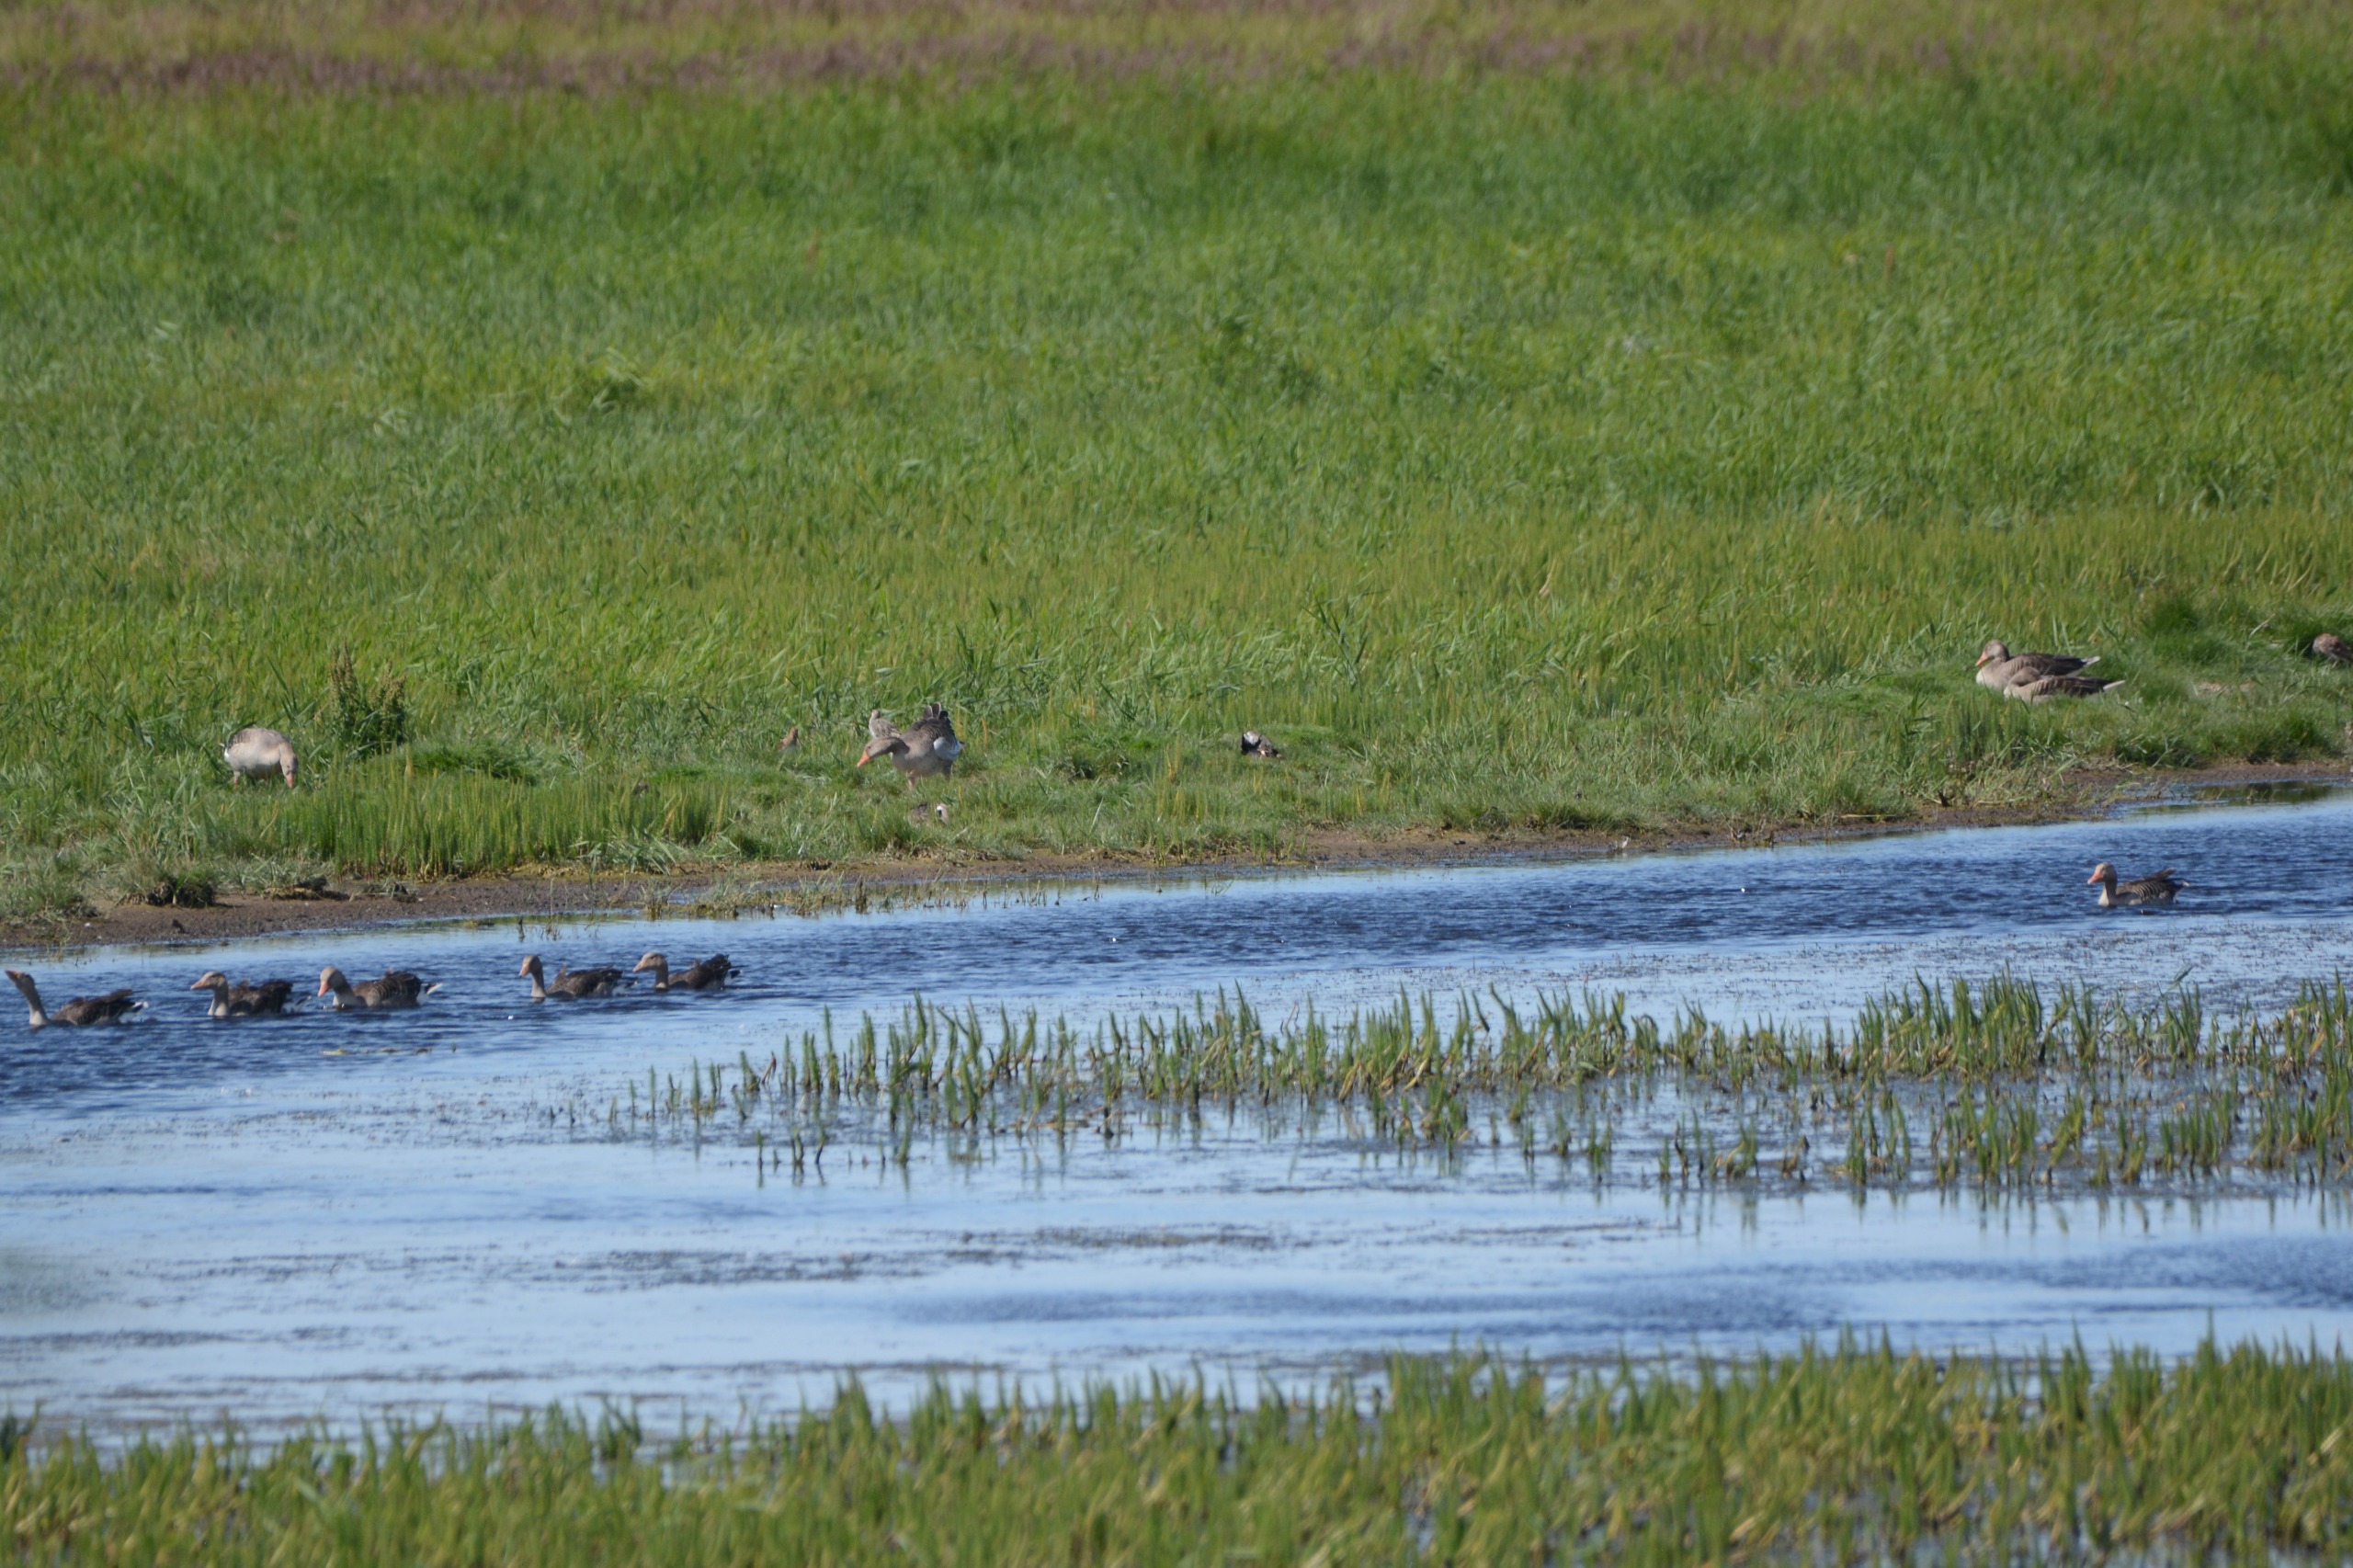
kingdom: Animalia
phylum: Chordata
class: Aves
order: Anseriformes
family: Anatidae
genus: Anser
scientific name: Anser anser
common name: Grågås
